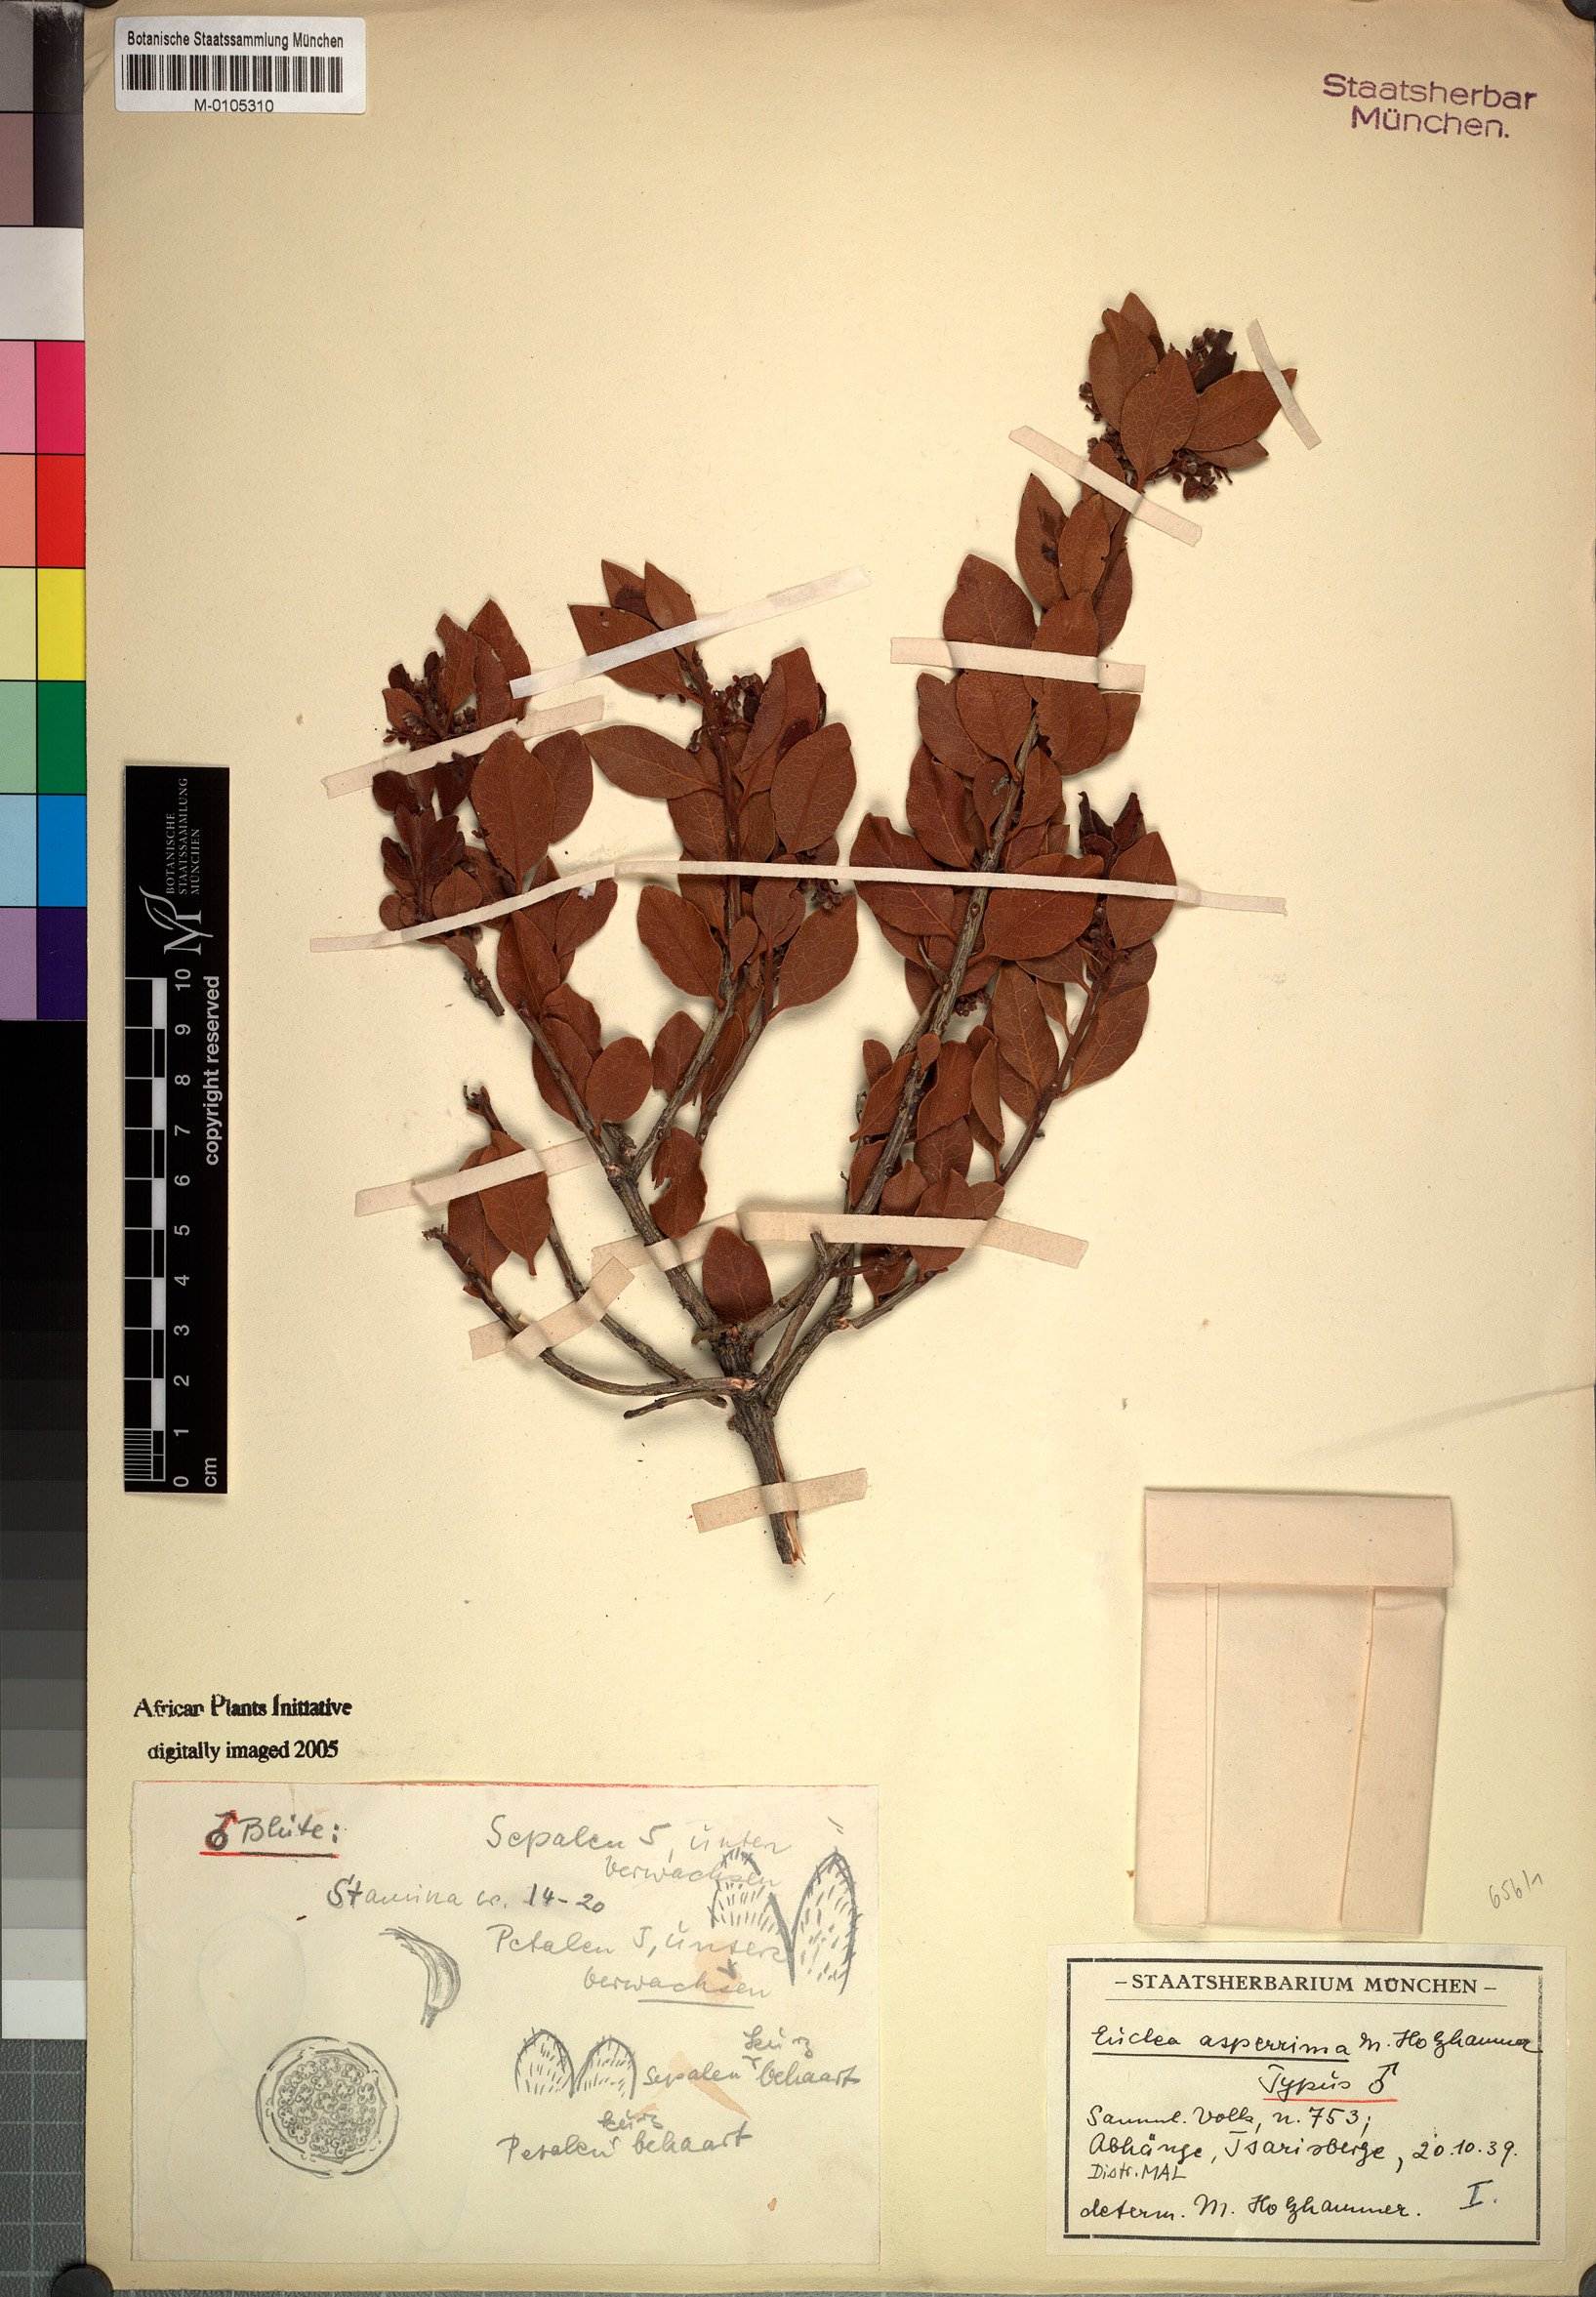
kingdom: Plantae
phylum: Tracheophyta
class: Magnoliopsida
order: Ericales
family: Ebenaceae
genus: Euclea
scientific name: Euclea asperrima
